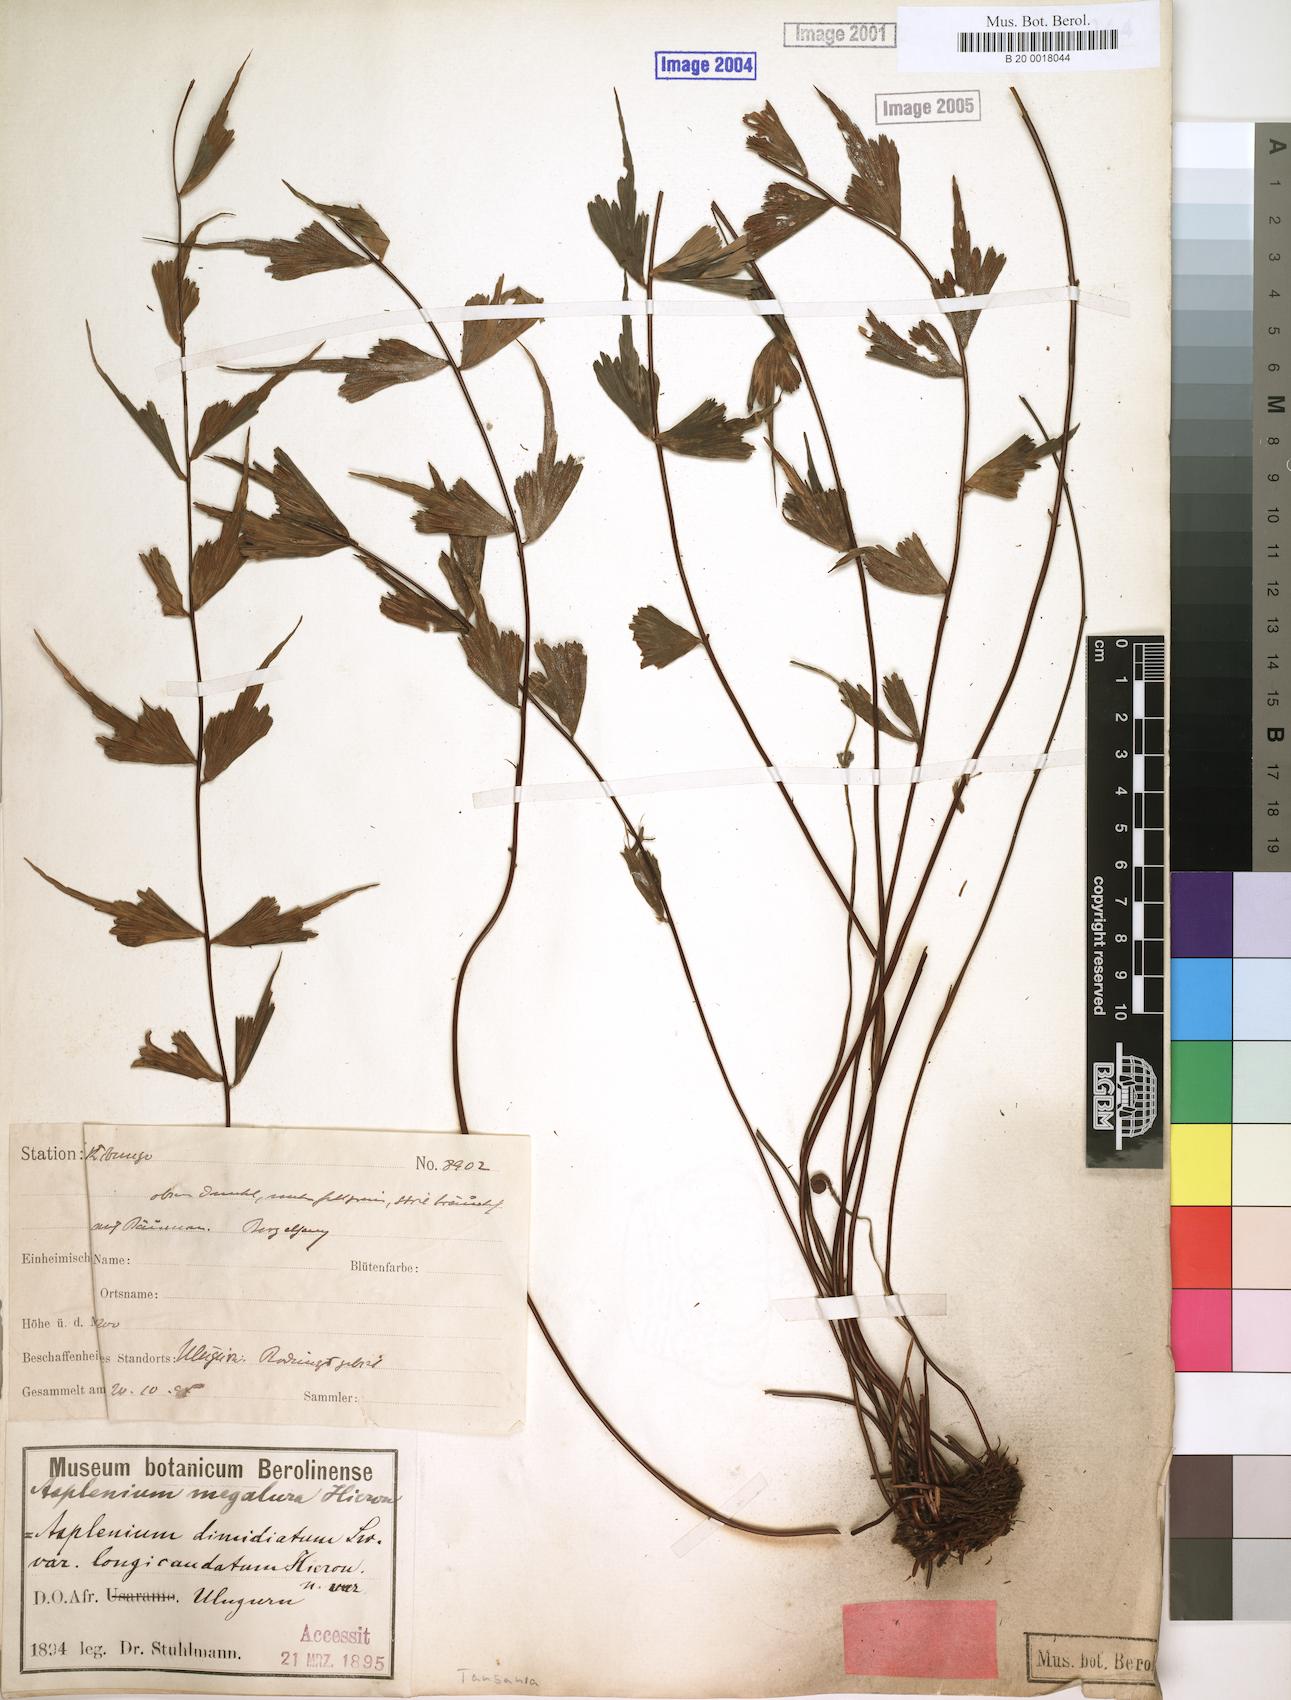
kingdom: Plantae
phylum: Tracheophyta
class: Polypodiopsida
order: Polypodiales
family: Aspleniaceae
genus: Asplenium
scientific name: Asplenium megalura
